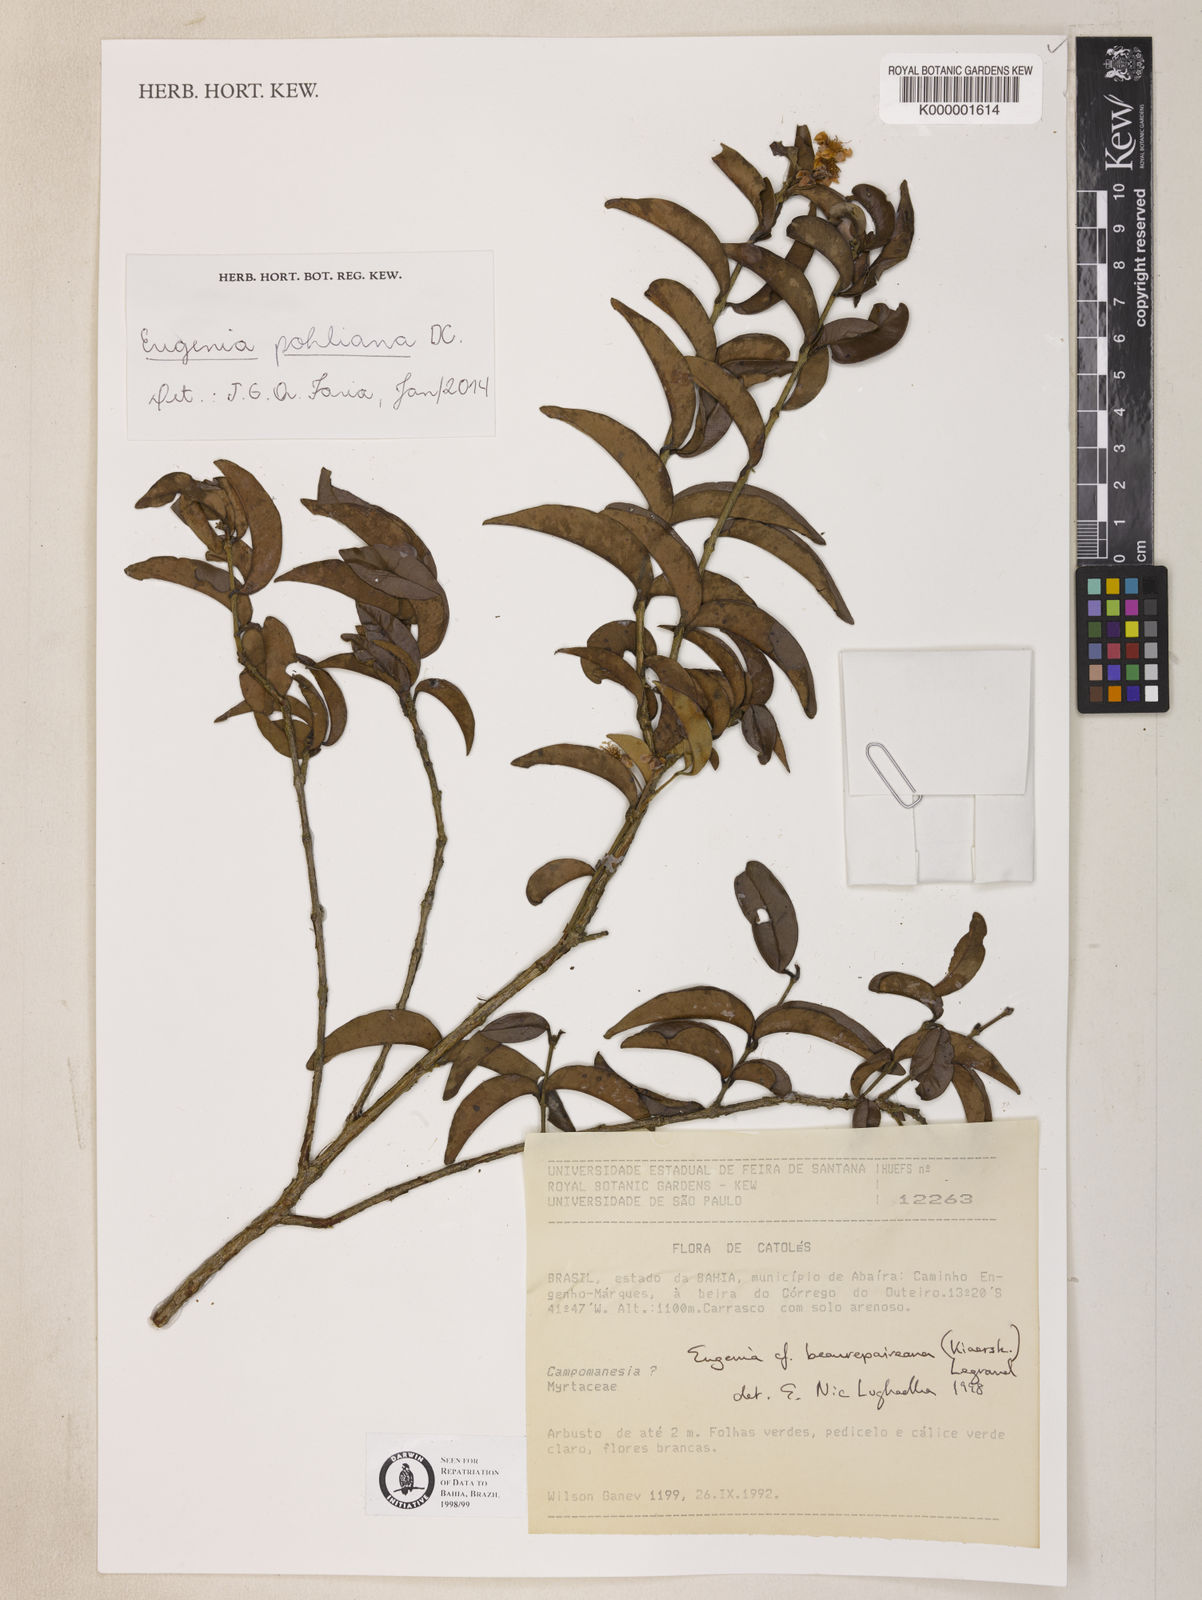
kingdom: Plantae
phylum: Tracheophyta
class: Magnoliopsida
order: Myrtales
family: Myrtaceae
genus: Eugenia
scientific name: Eugenia pohliana
